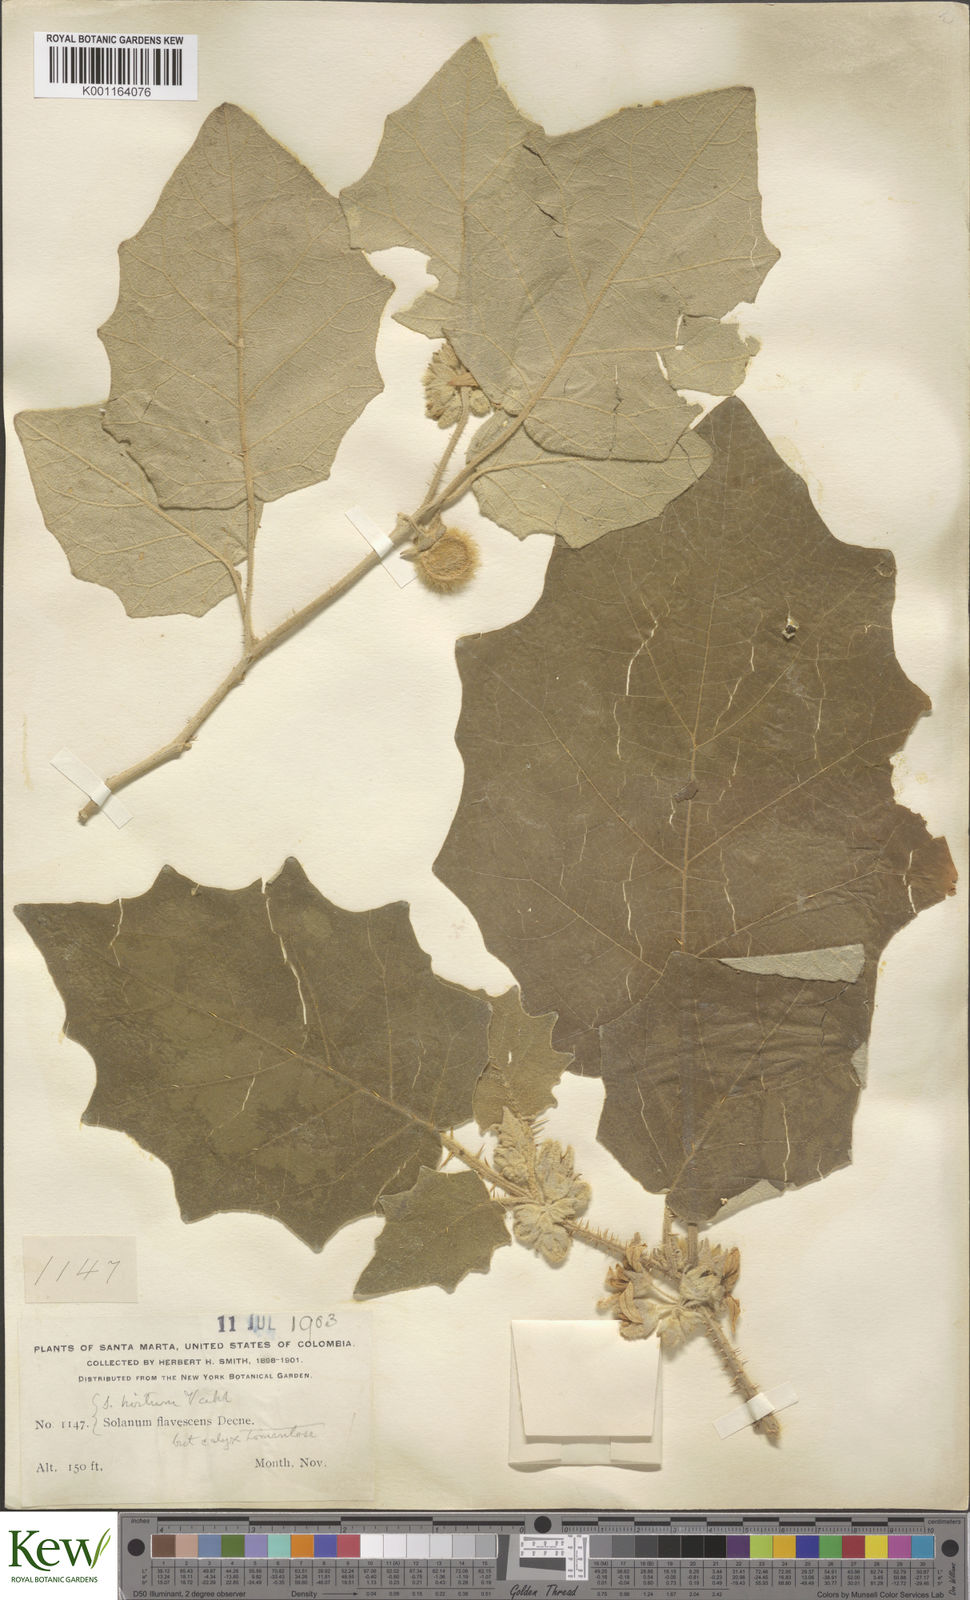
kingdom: Plantae
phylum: Tracheophyta
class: Magnoliopsida
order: Solanales
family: Solanaceae
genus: Solanum
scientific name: Solanum hirtum
